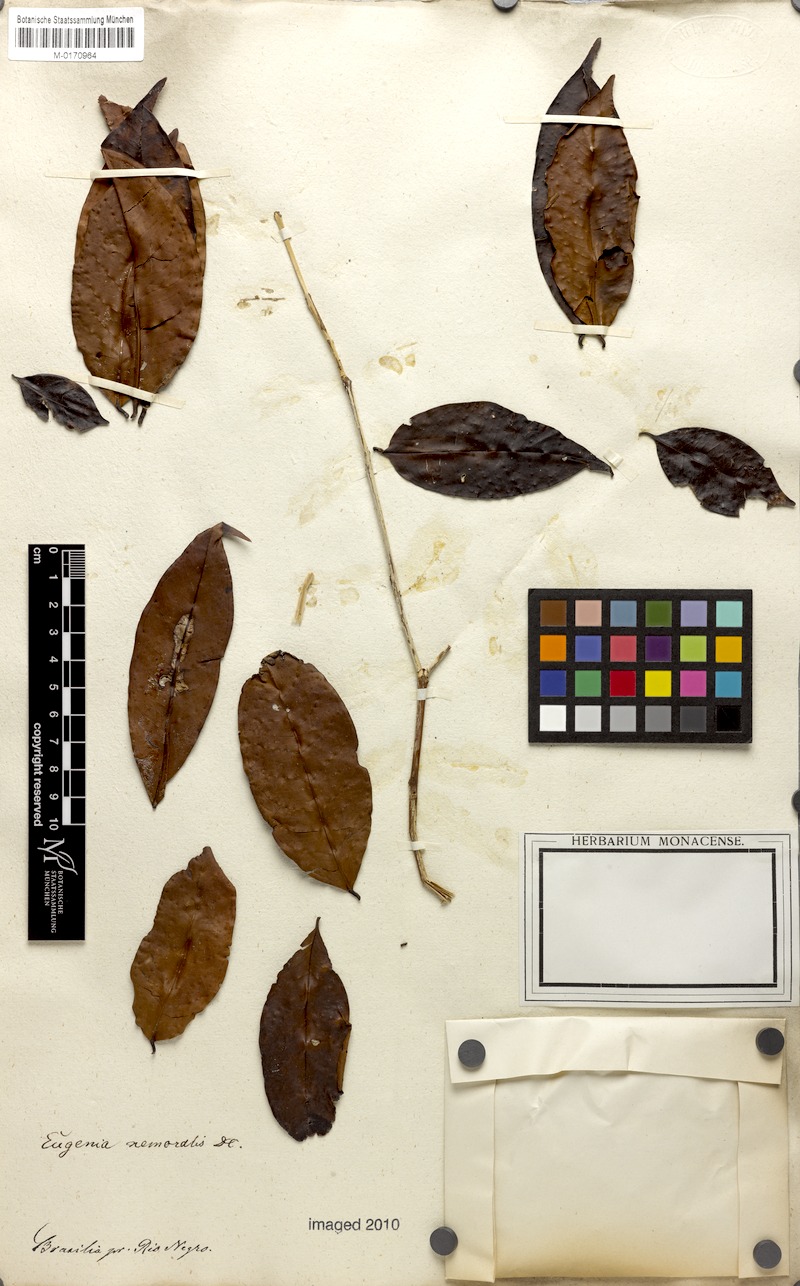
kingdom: Plantae
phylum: Tracheophyta
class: Magnoliopsida
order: Myrtales
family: Myrtaceae
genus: Eugenia
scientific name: Eugenia ferreiraeana
